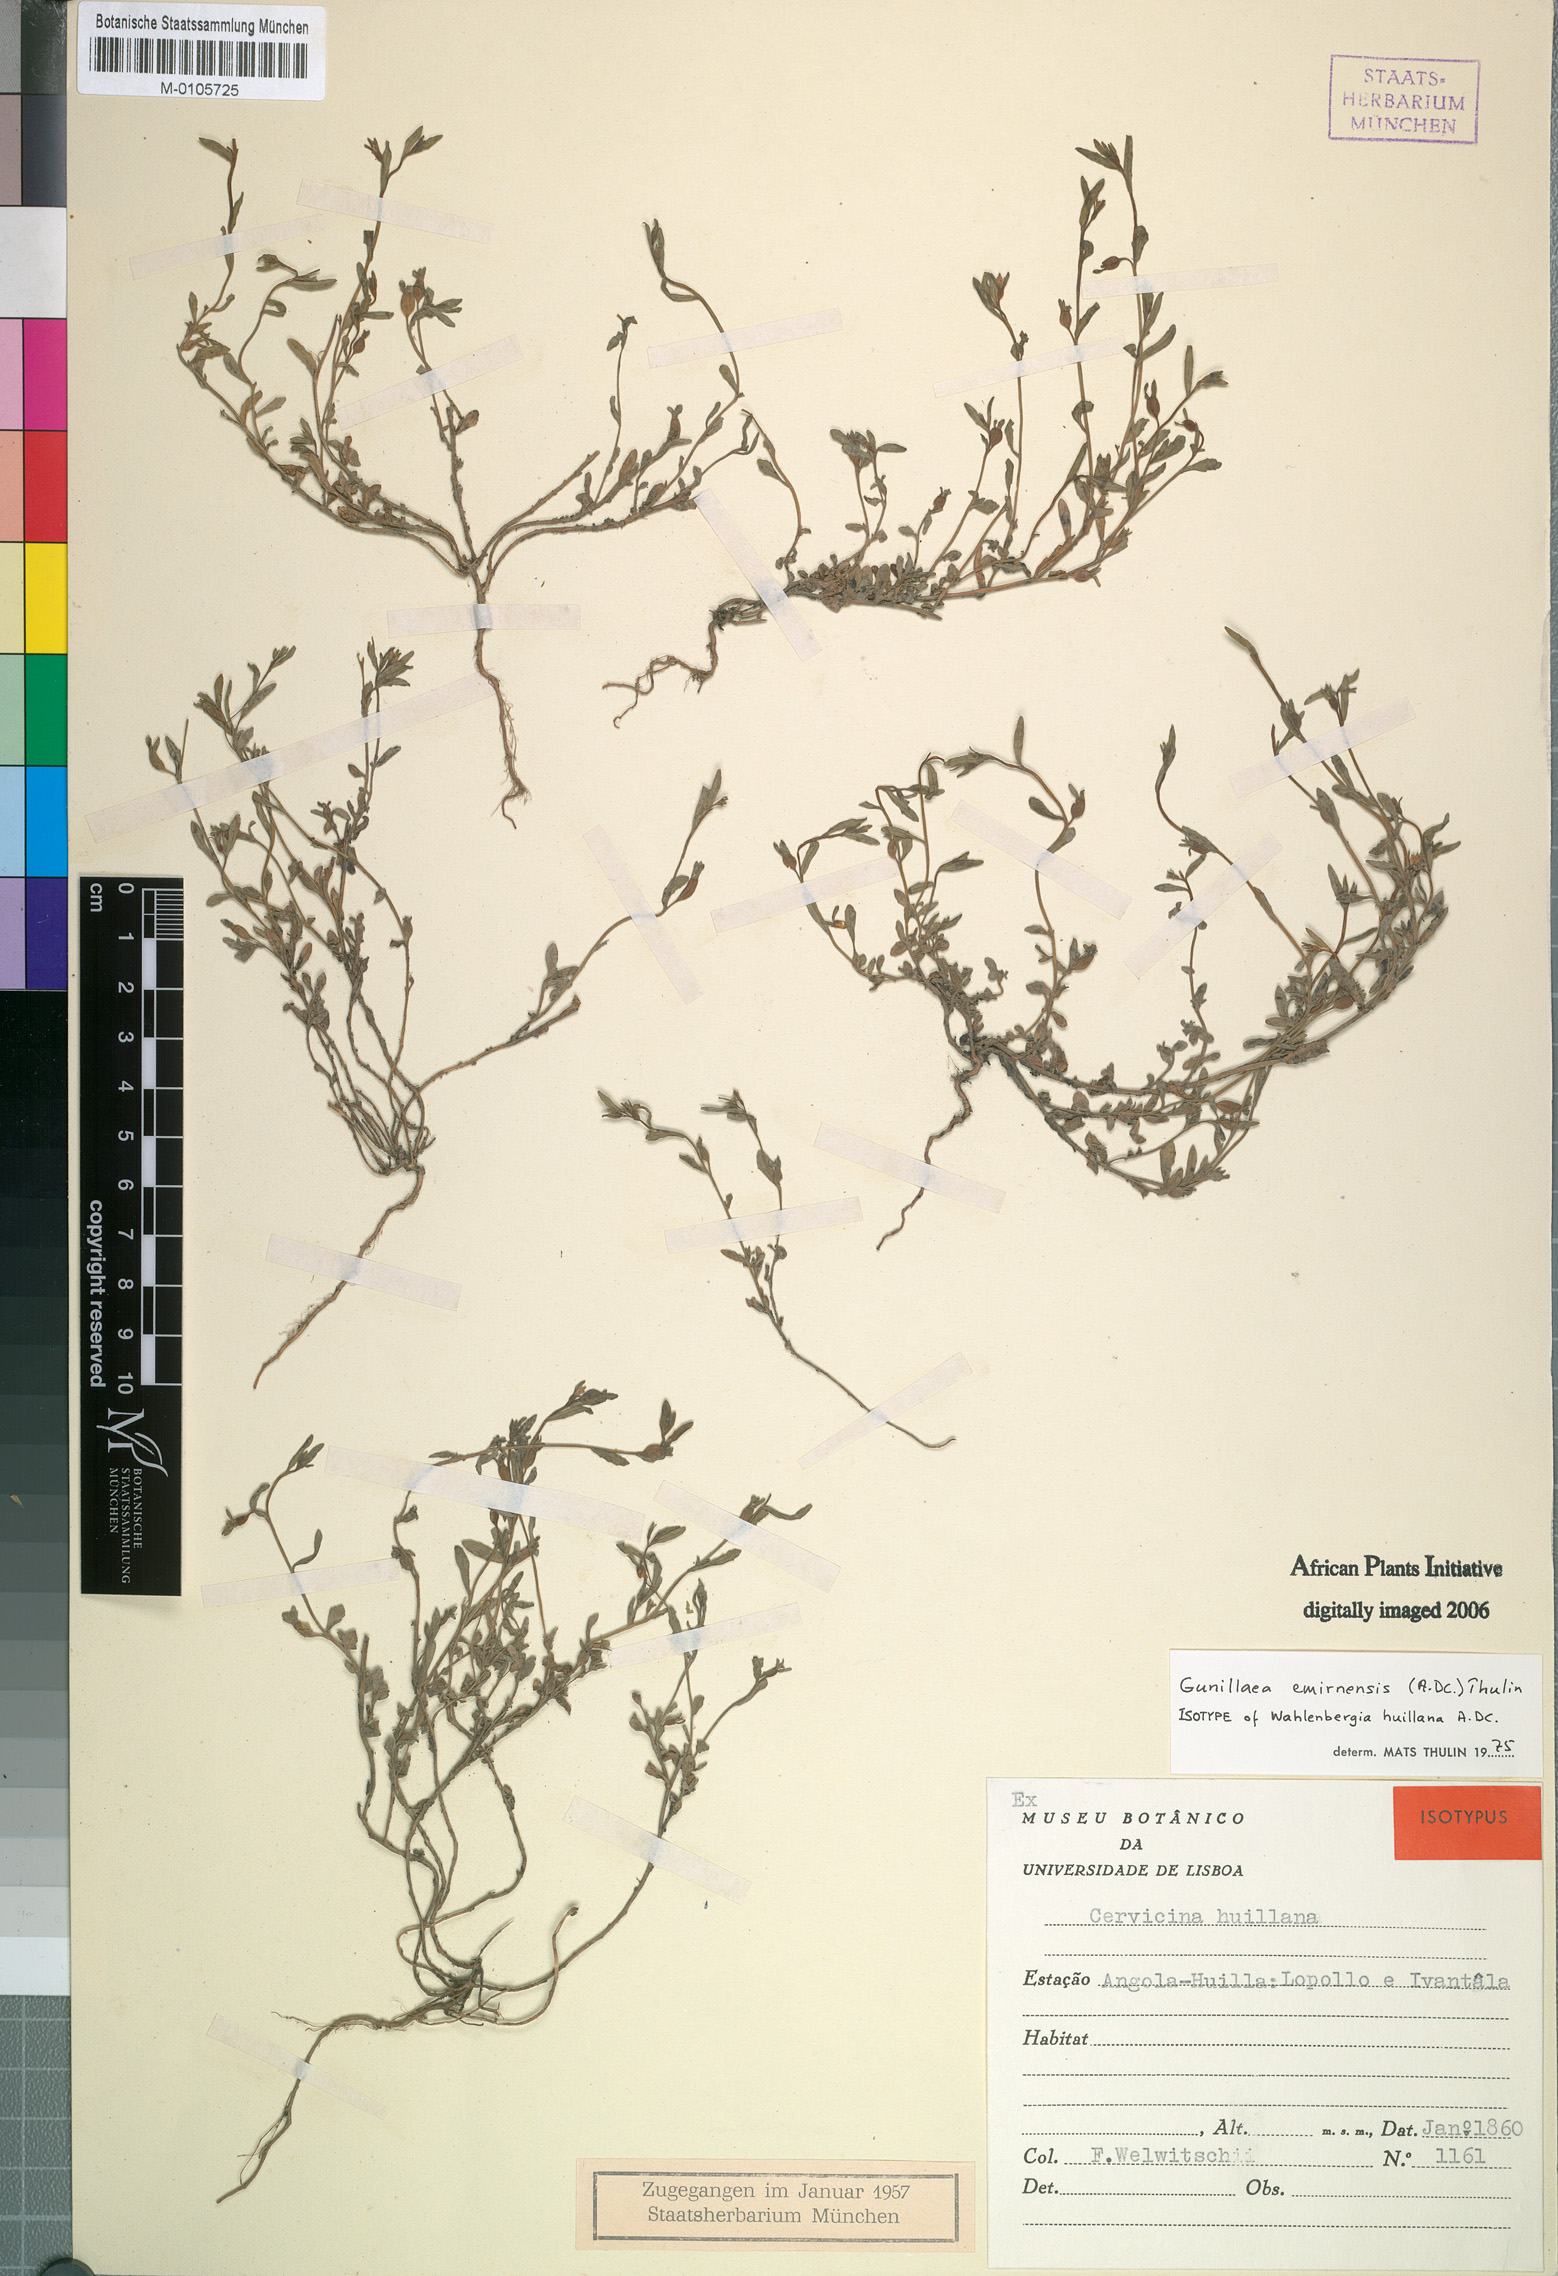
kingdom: Plantae
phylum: Tracheophyta
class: Magnoliopsida
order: Asterales
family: Campanulaceae
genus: Gunillaea
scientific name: Gunillaea emirnensis
